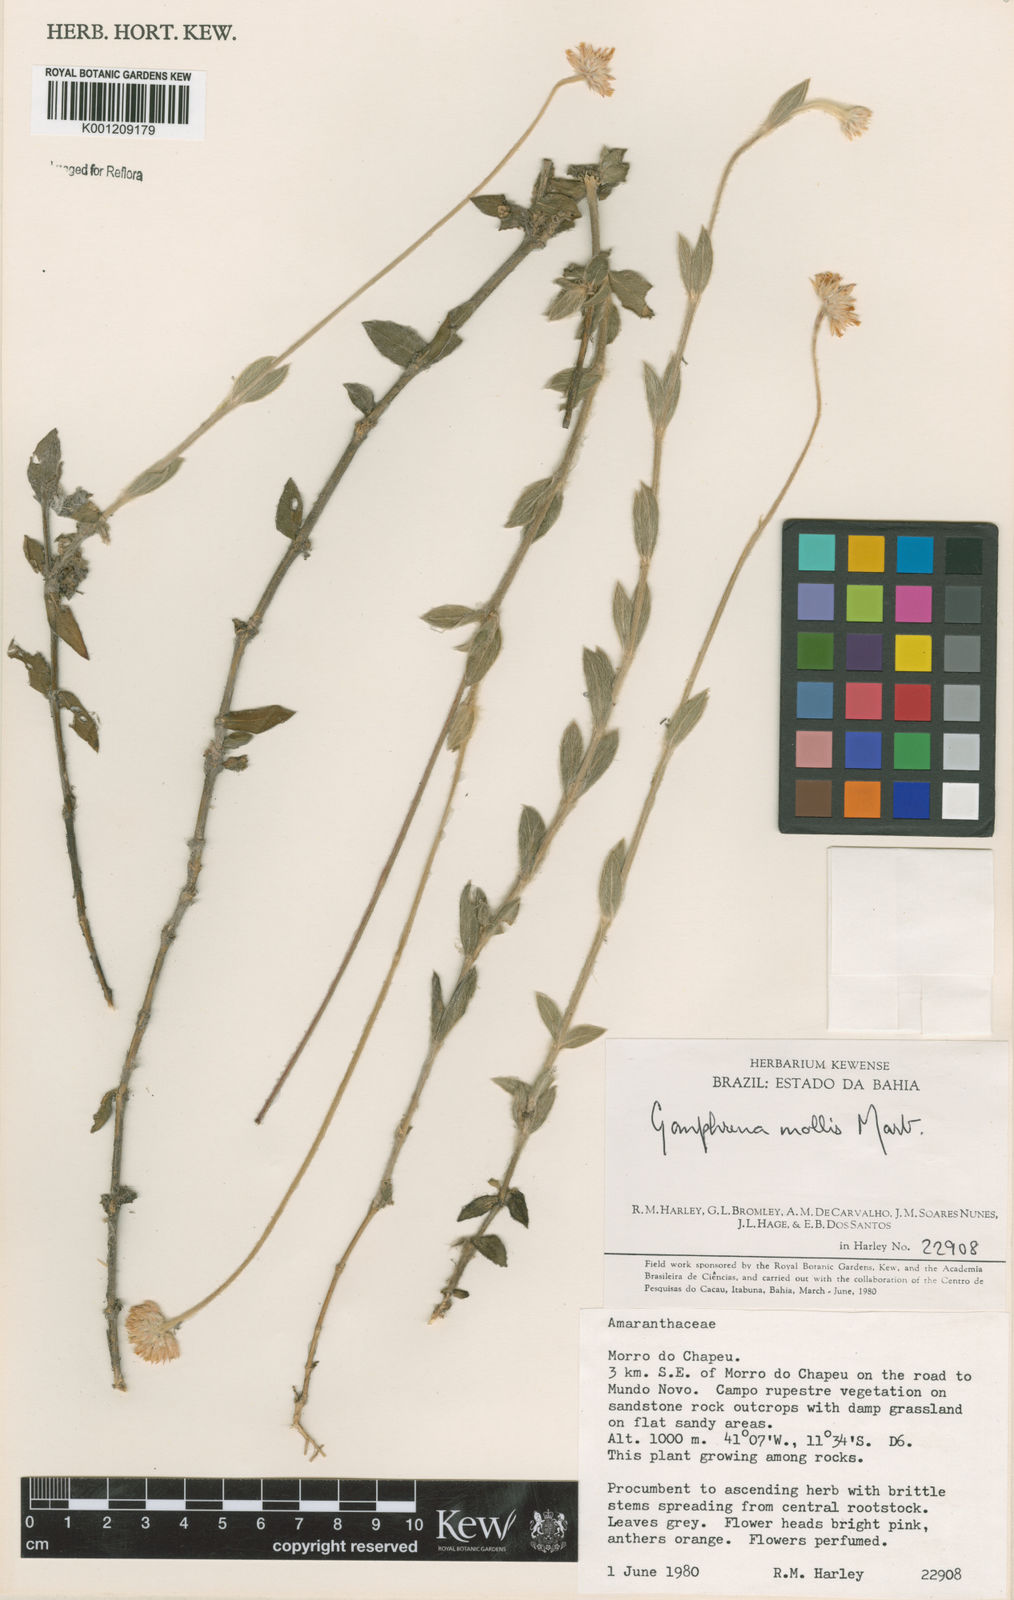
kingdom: Plantae
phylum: Tracheophyta
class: Magnoliopsida
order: Caryophyllales
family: Amaranthaceae
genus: Gomphrena
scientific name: Gomphrena mollis
